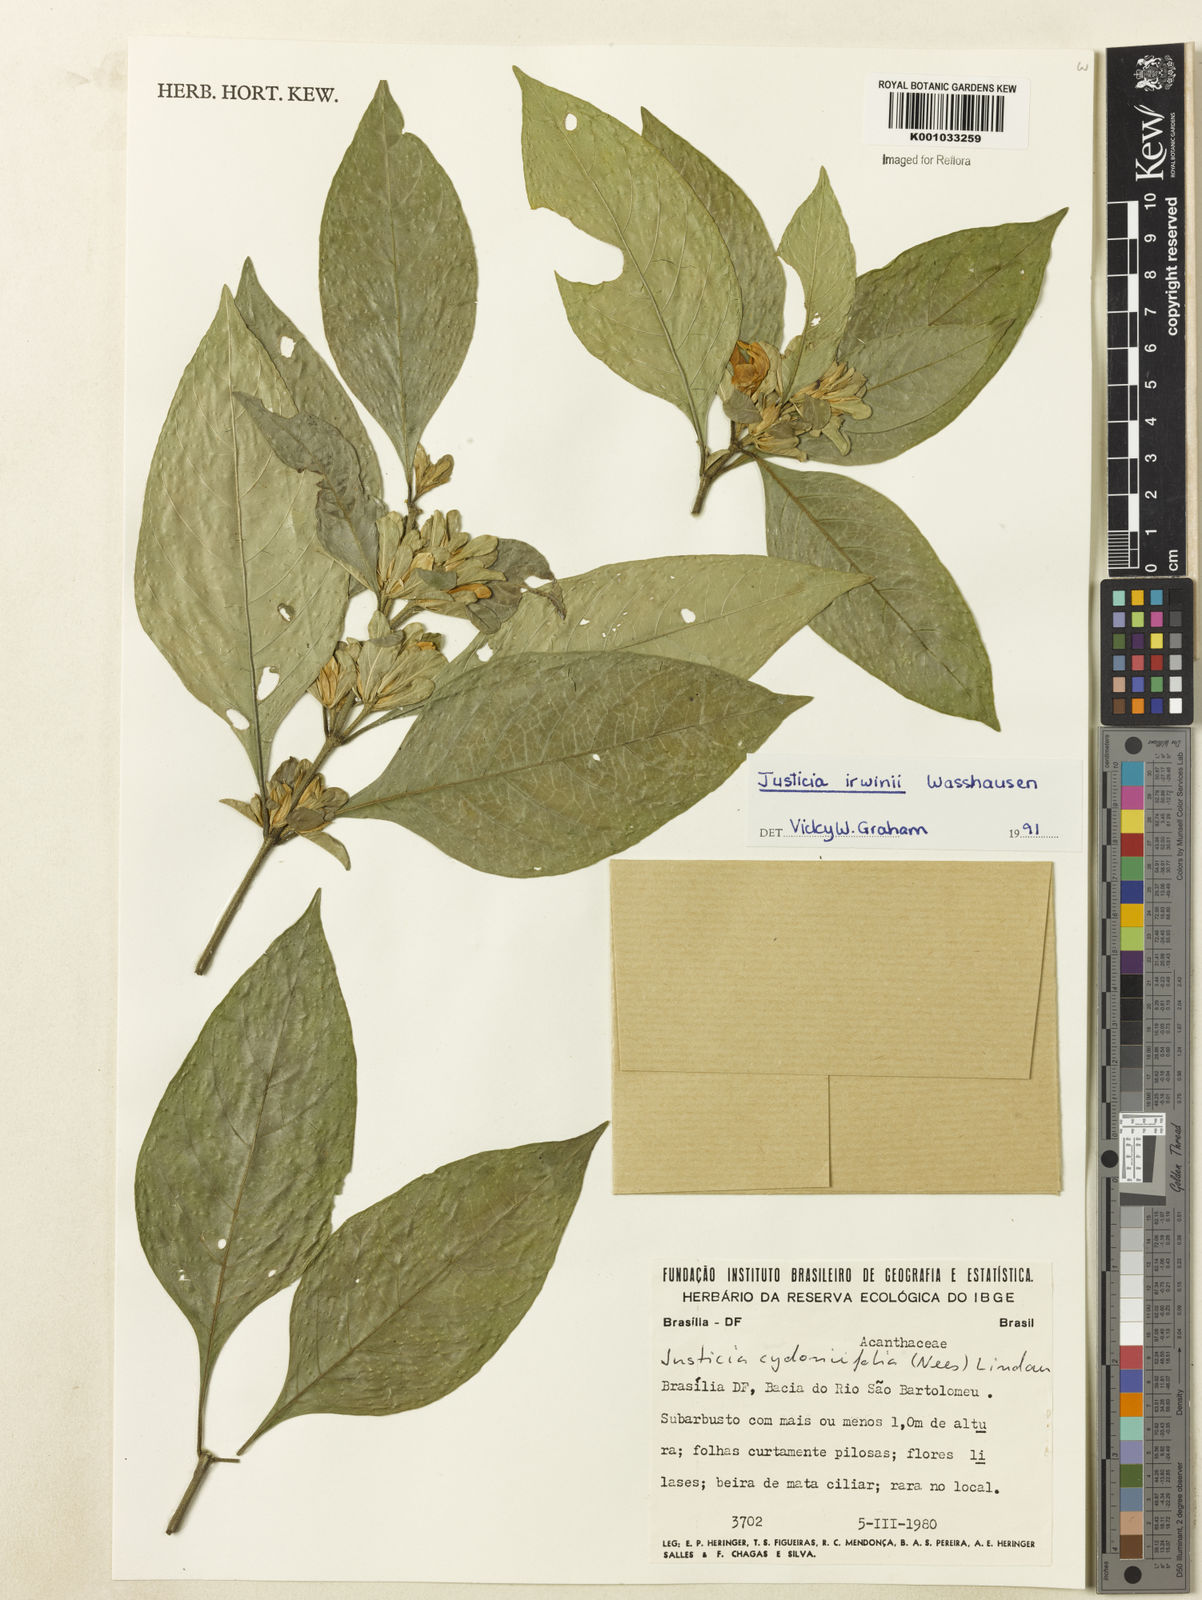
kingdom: Plantae
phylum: Tracheophyta
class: Magnoliopsida
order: Lamiales
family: Acanthaceae
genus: Justicia
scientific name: Justicia irwinii
